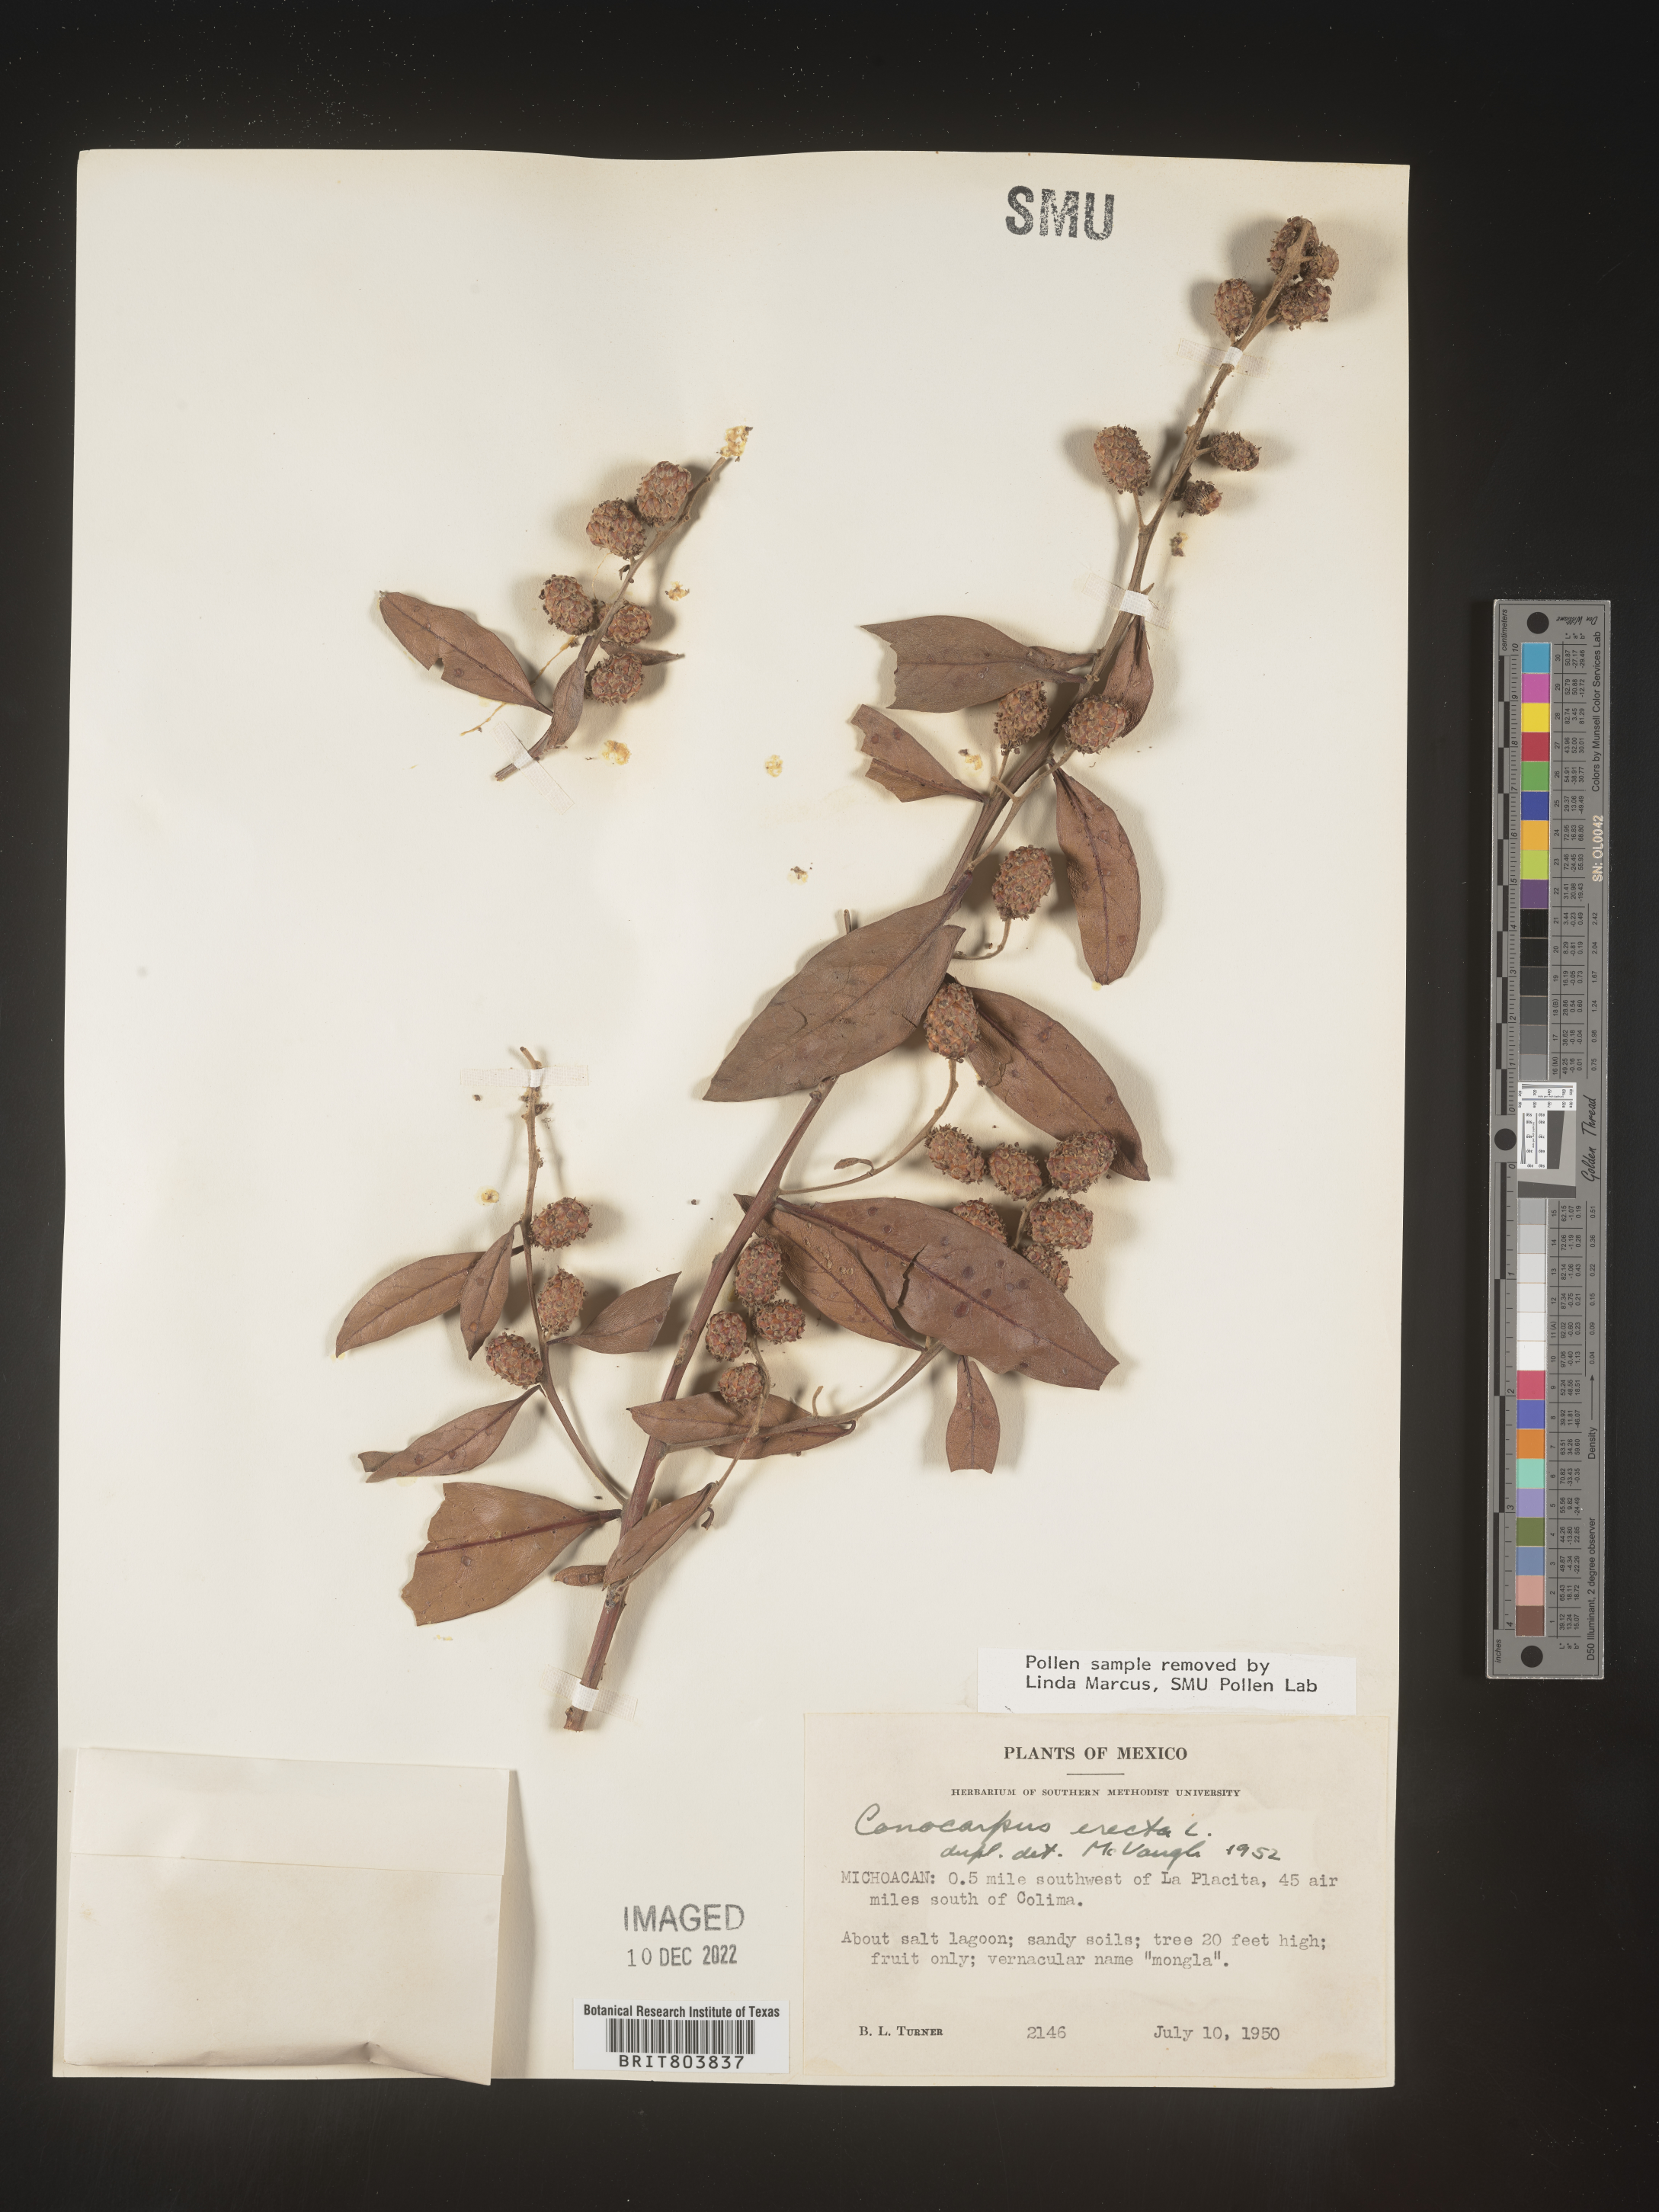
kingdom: Plantae
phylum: Tracheophyta
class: Magnoliopsida
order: Myrtales
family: Combretaceae
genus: Conocarpus
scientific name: Conocarpus
